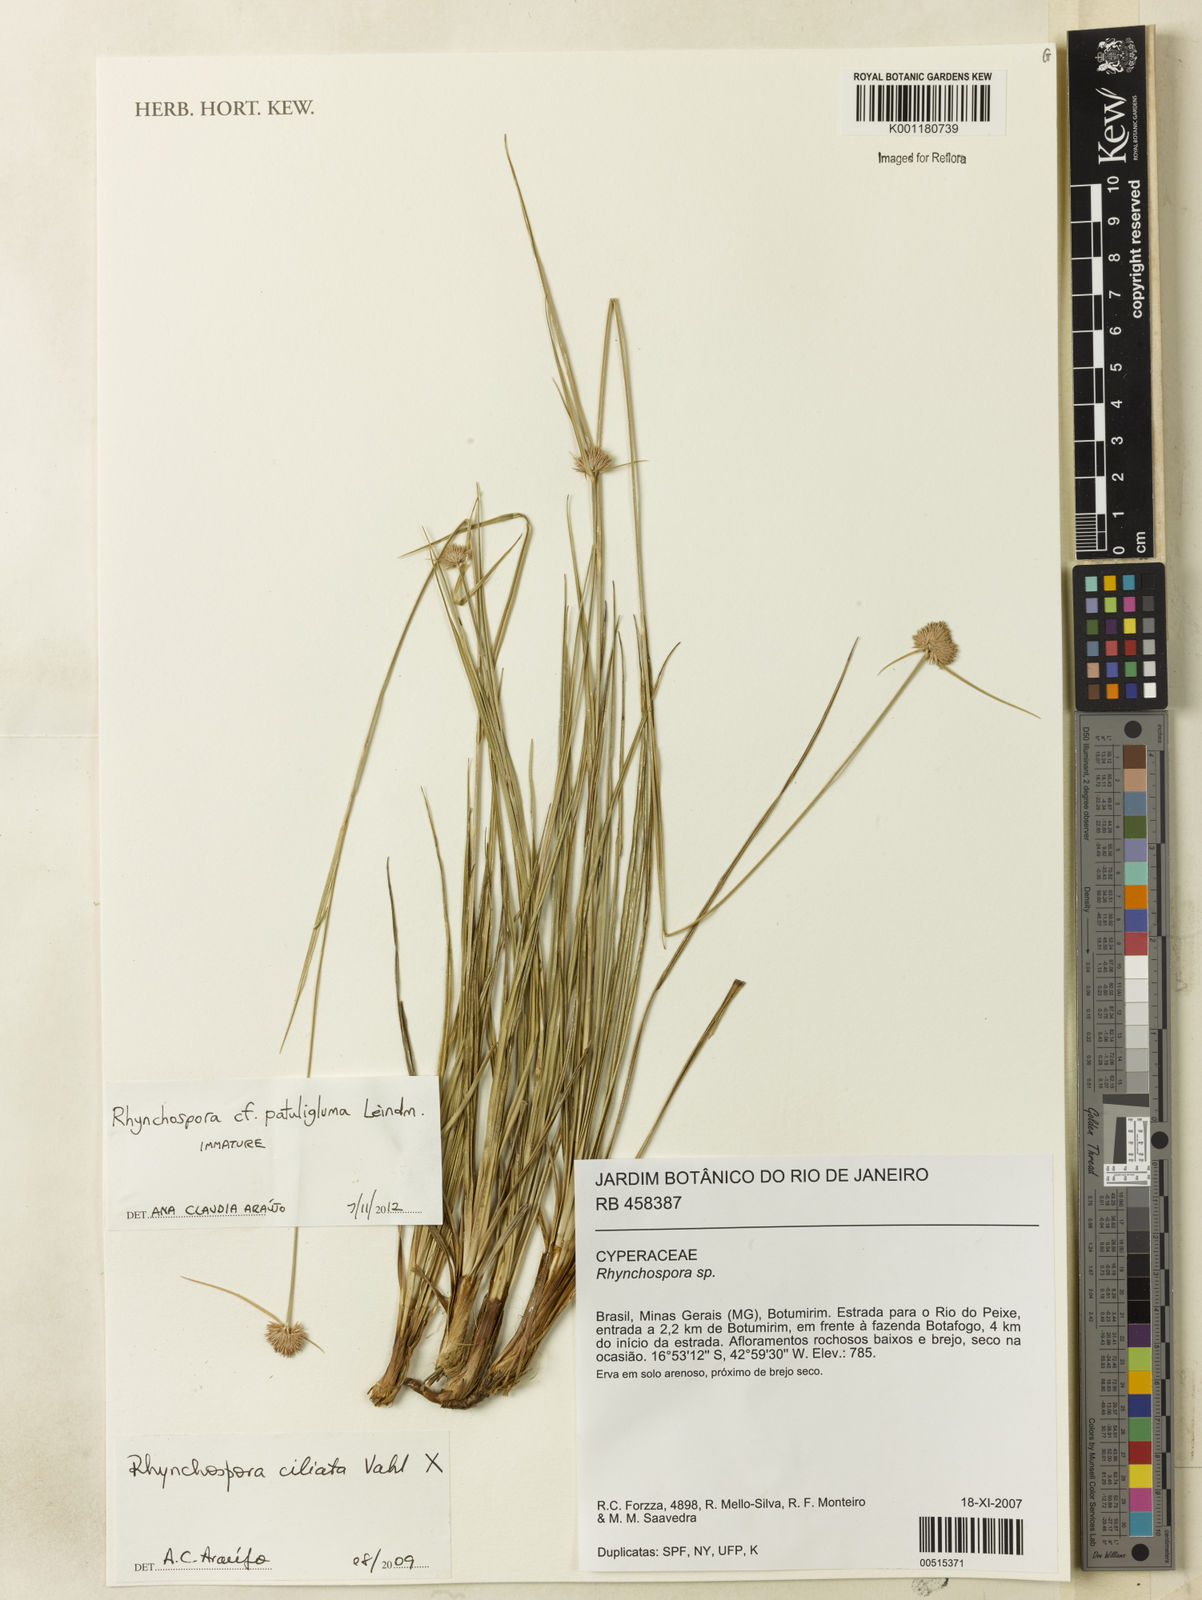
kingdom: Plantae
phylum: Tracheophyta
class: Liliopsida
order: Poales
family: Cyperaceae
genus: Rhynchospora
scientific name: Rhynchospora patuligluma
